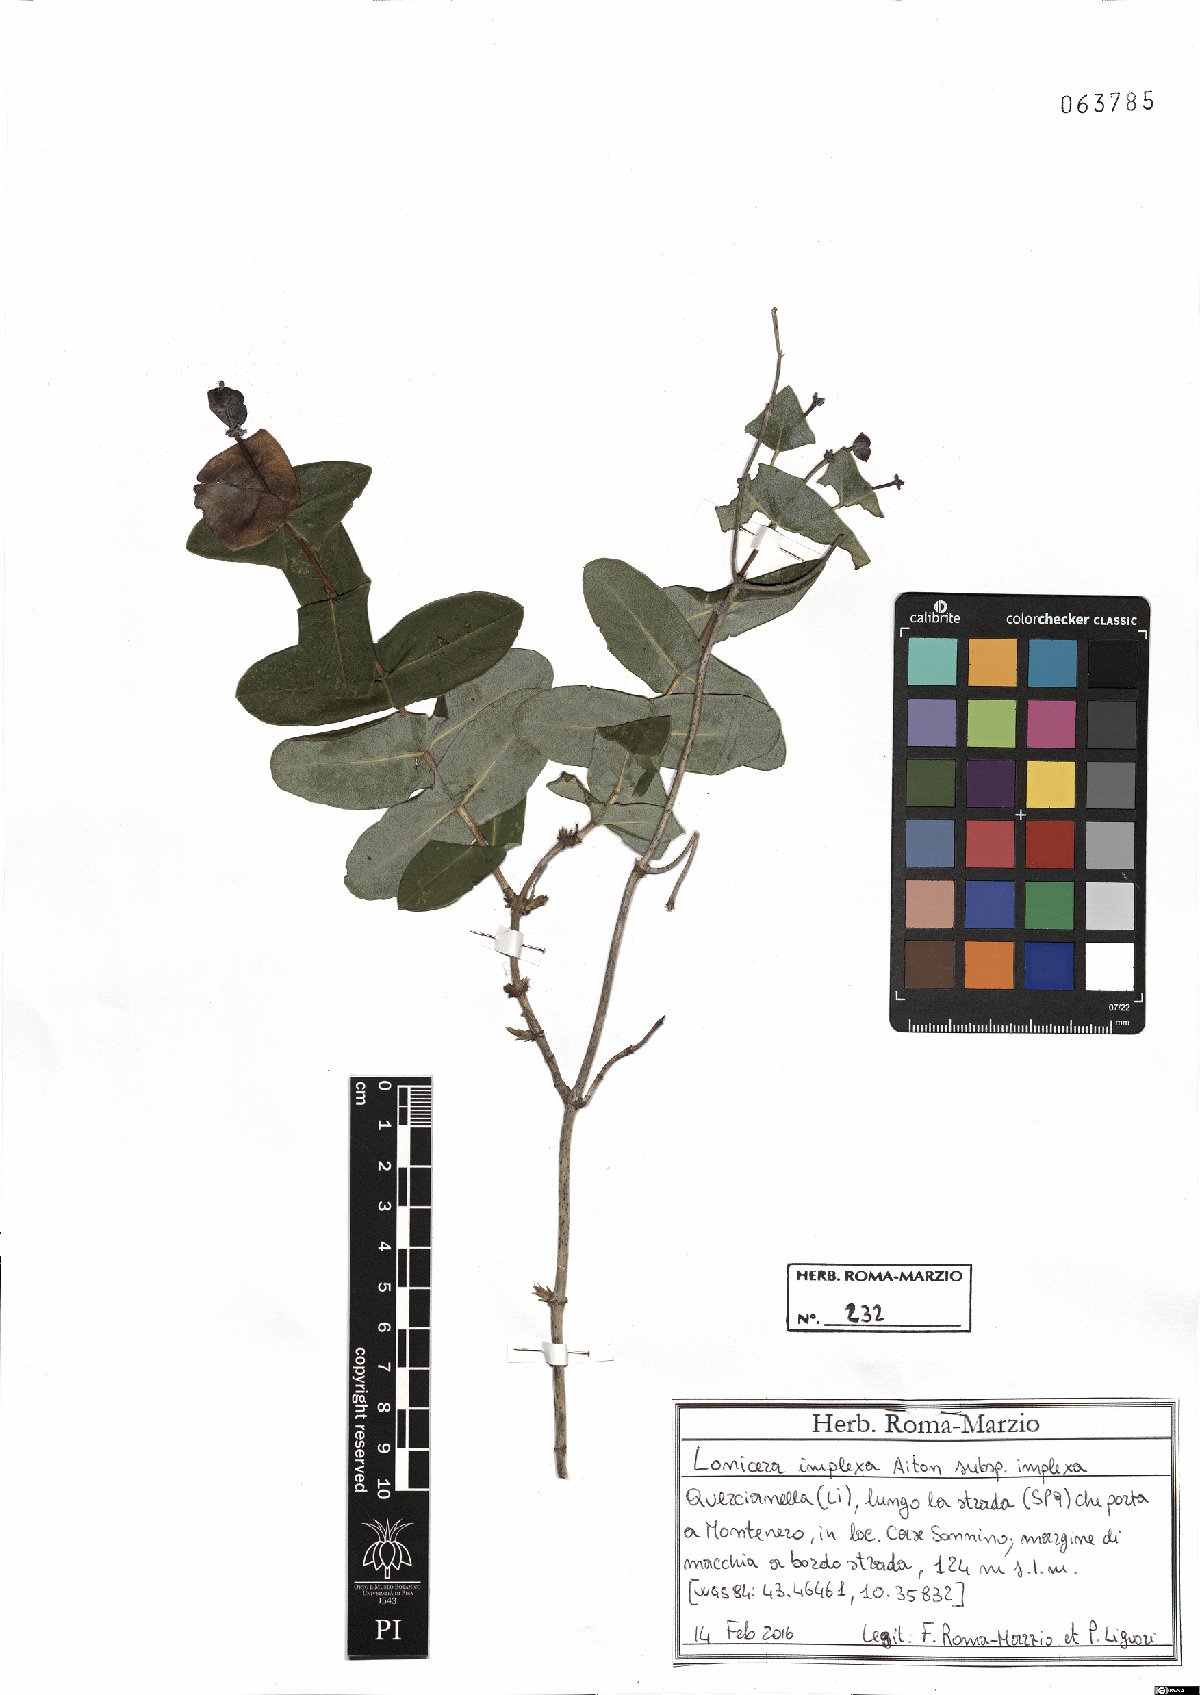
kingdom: Plantae
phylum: Tracheophyta
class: Magnoliopsida
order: Dipsacales
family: Caprifoliaceae
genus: Lonicera
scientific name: Lonicera implexa
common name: Minorca honeysuckle
